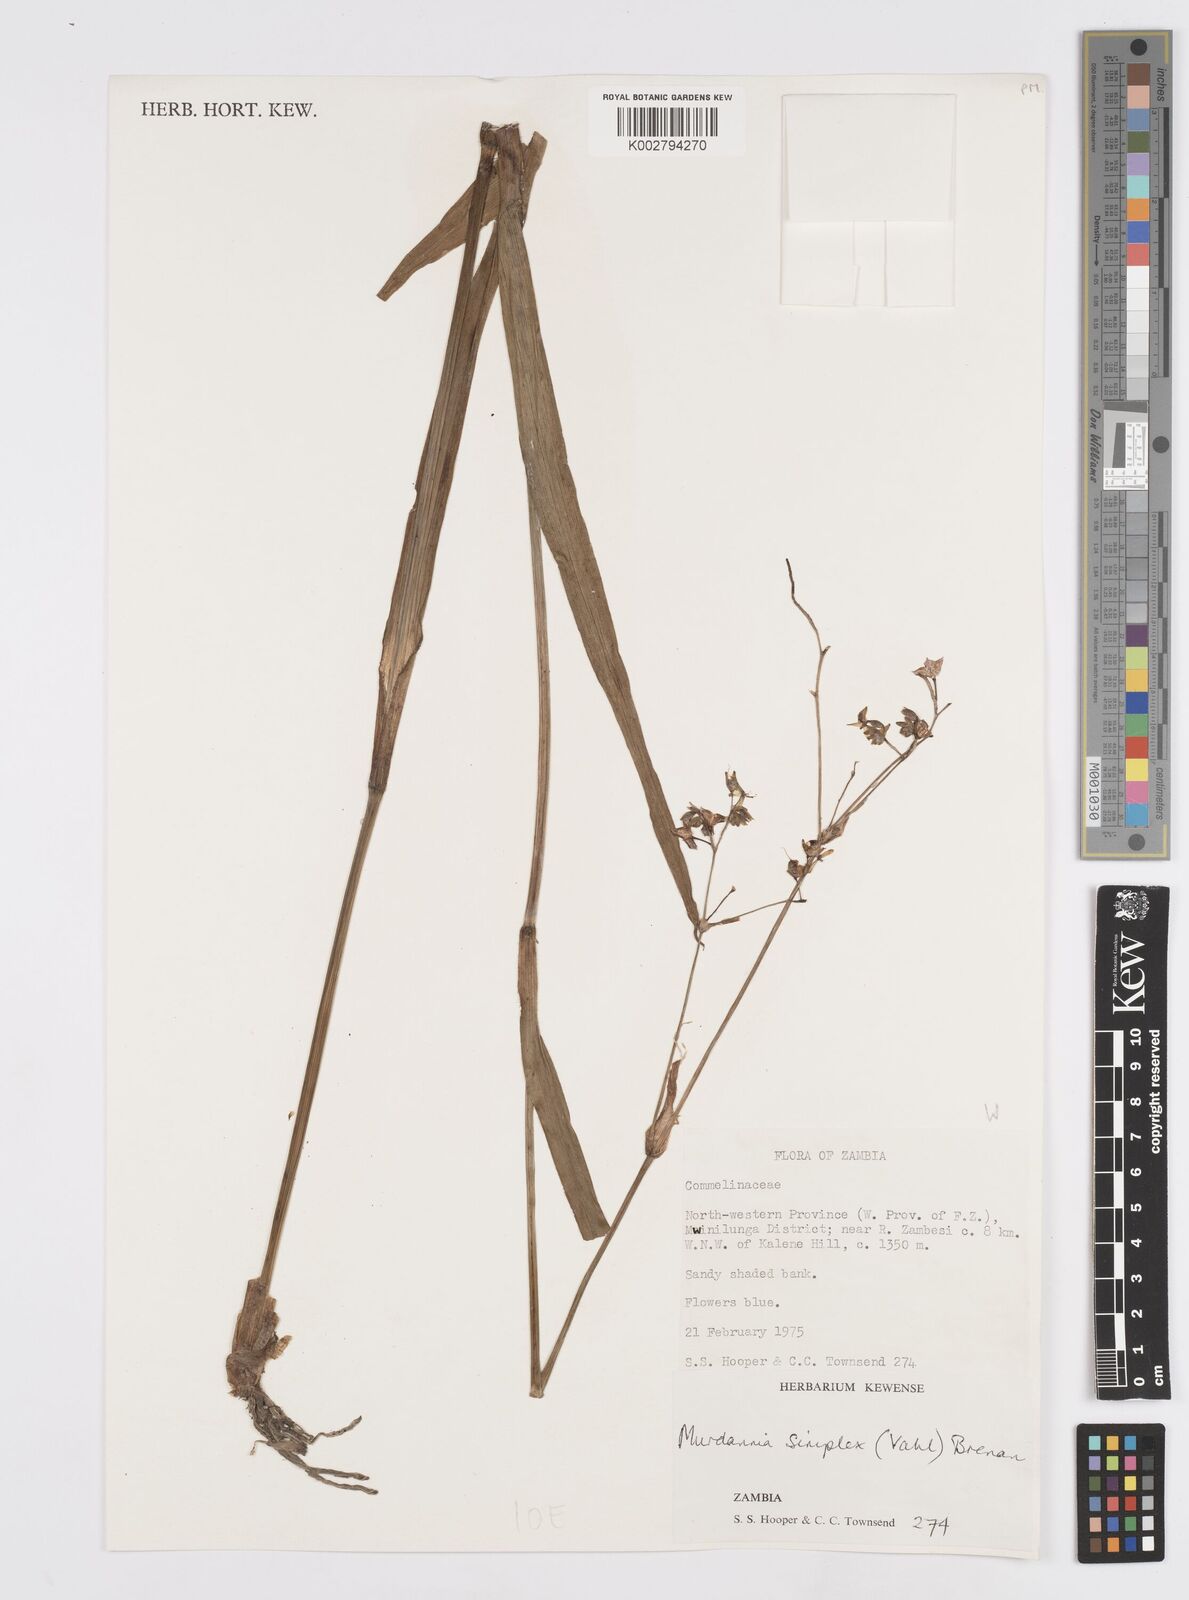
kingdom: Plantae
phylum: Tracheophyta
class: Liliopsida
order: Commelinales
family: Commelinaceae
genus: Murdannia
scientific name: Murdannia simplex
